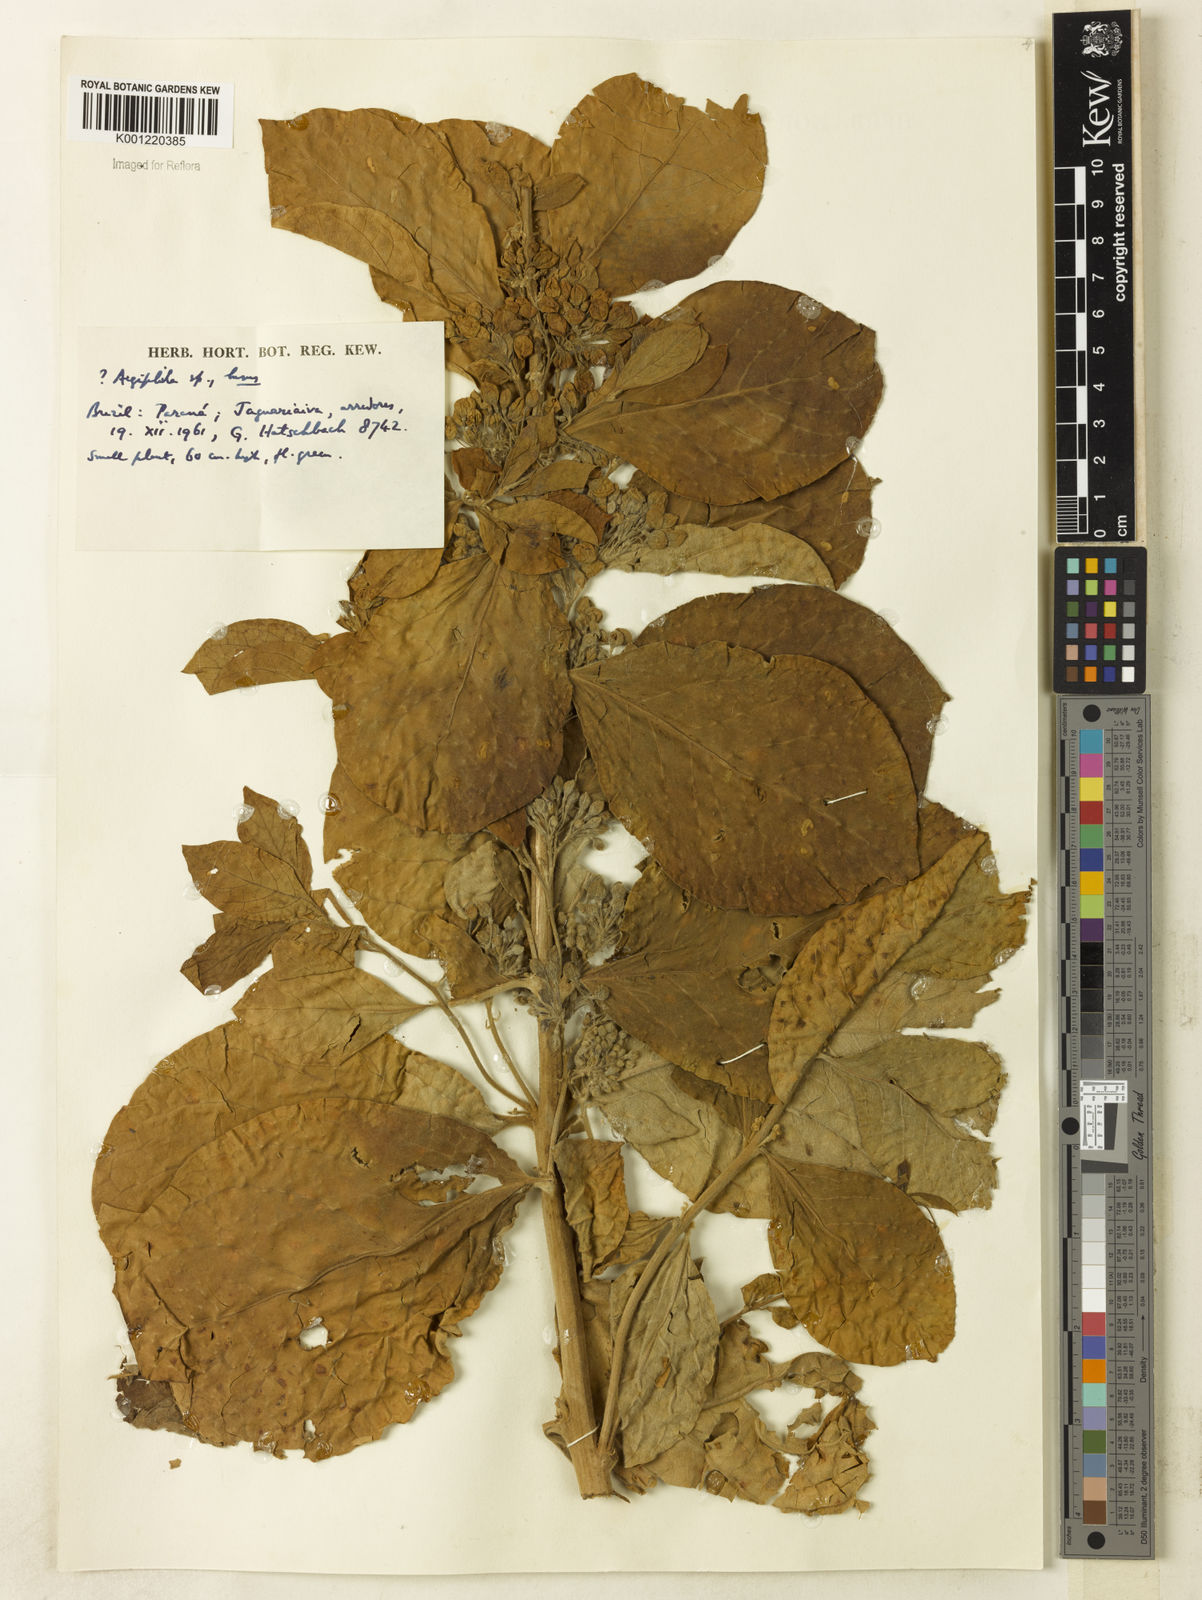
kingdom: Plantae
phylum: Tracheophyta
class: Magnoliopsida
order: Lamiales
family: Lamiaceae
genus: Aegiphila
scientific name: Aegiphila
